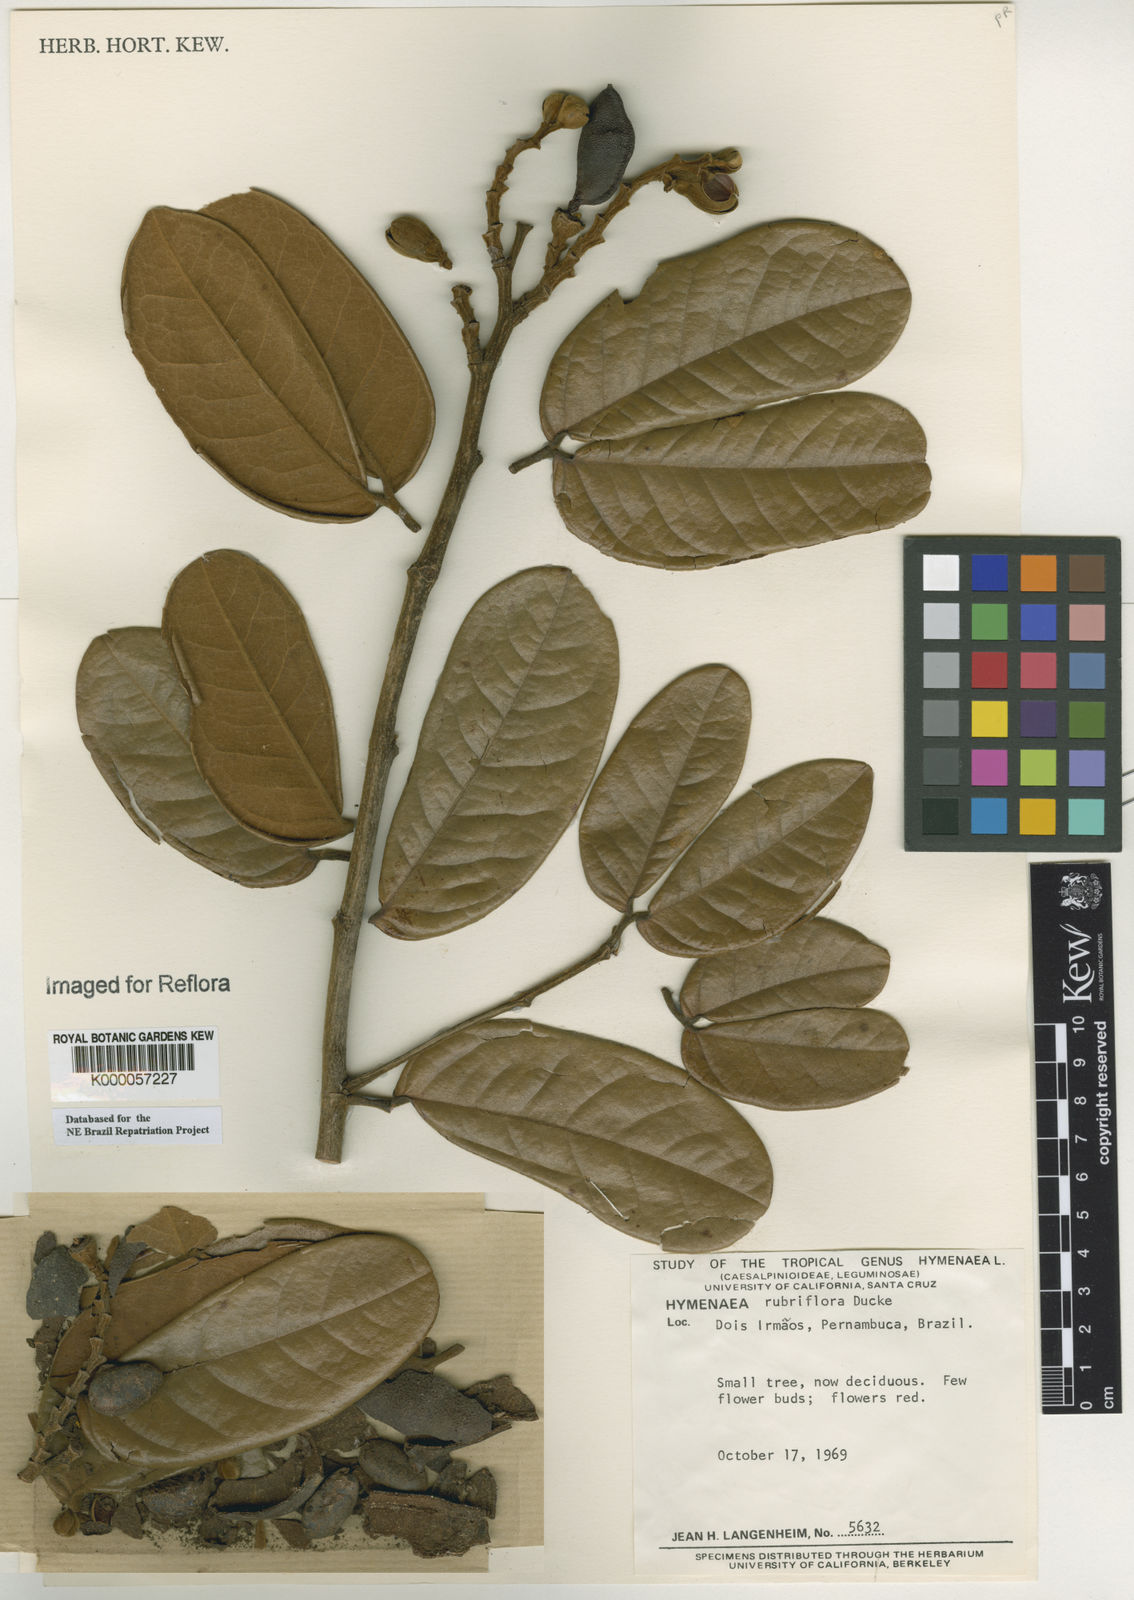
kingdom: Plantae
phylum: Tracheophyta
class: Magnoliopsida
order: Fabales
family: Fabaceae
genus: Hymenaea
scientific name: Hymenaea rubriflora
